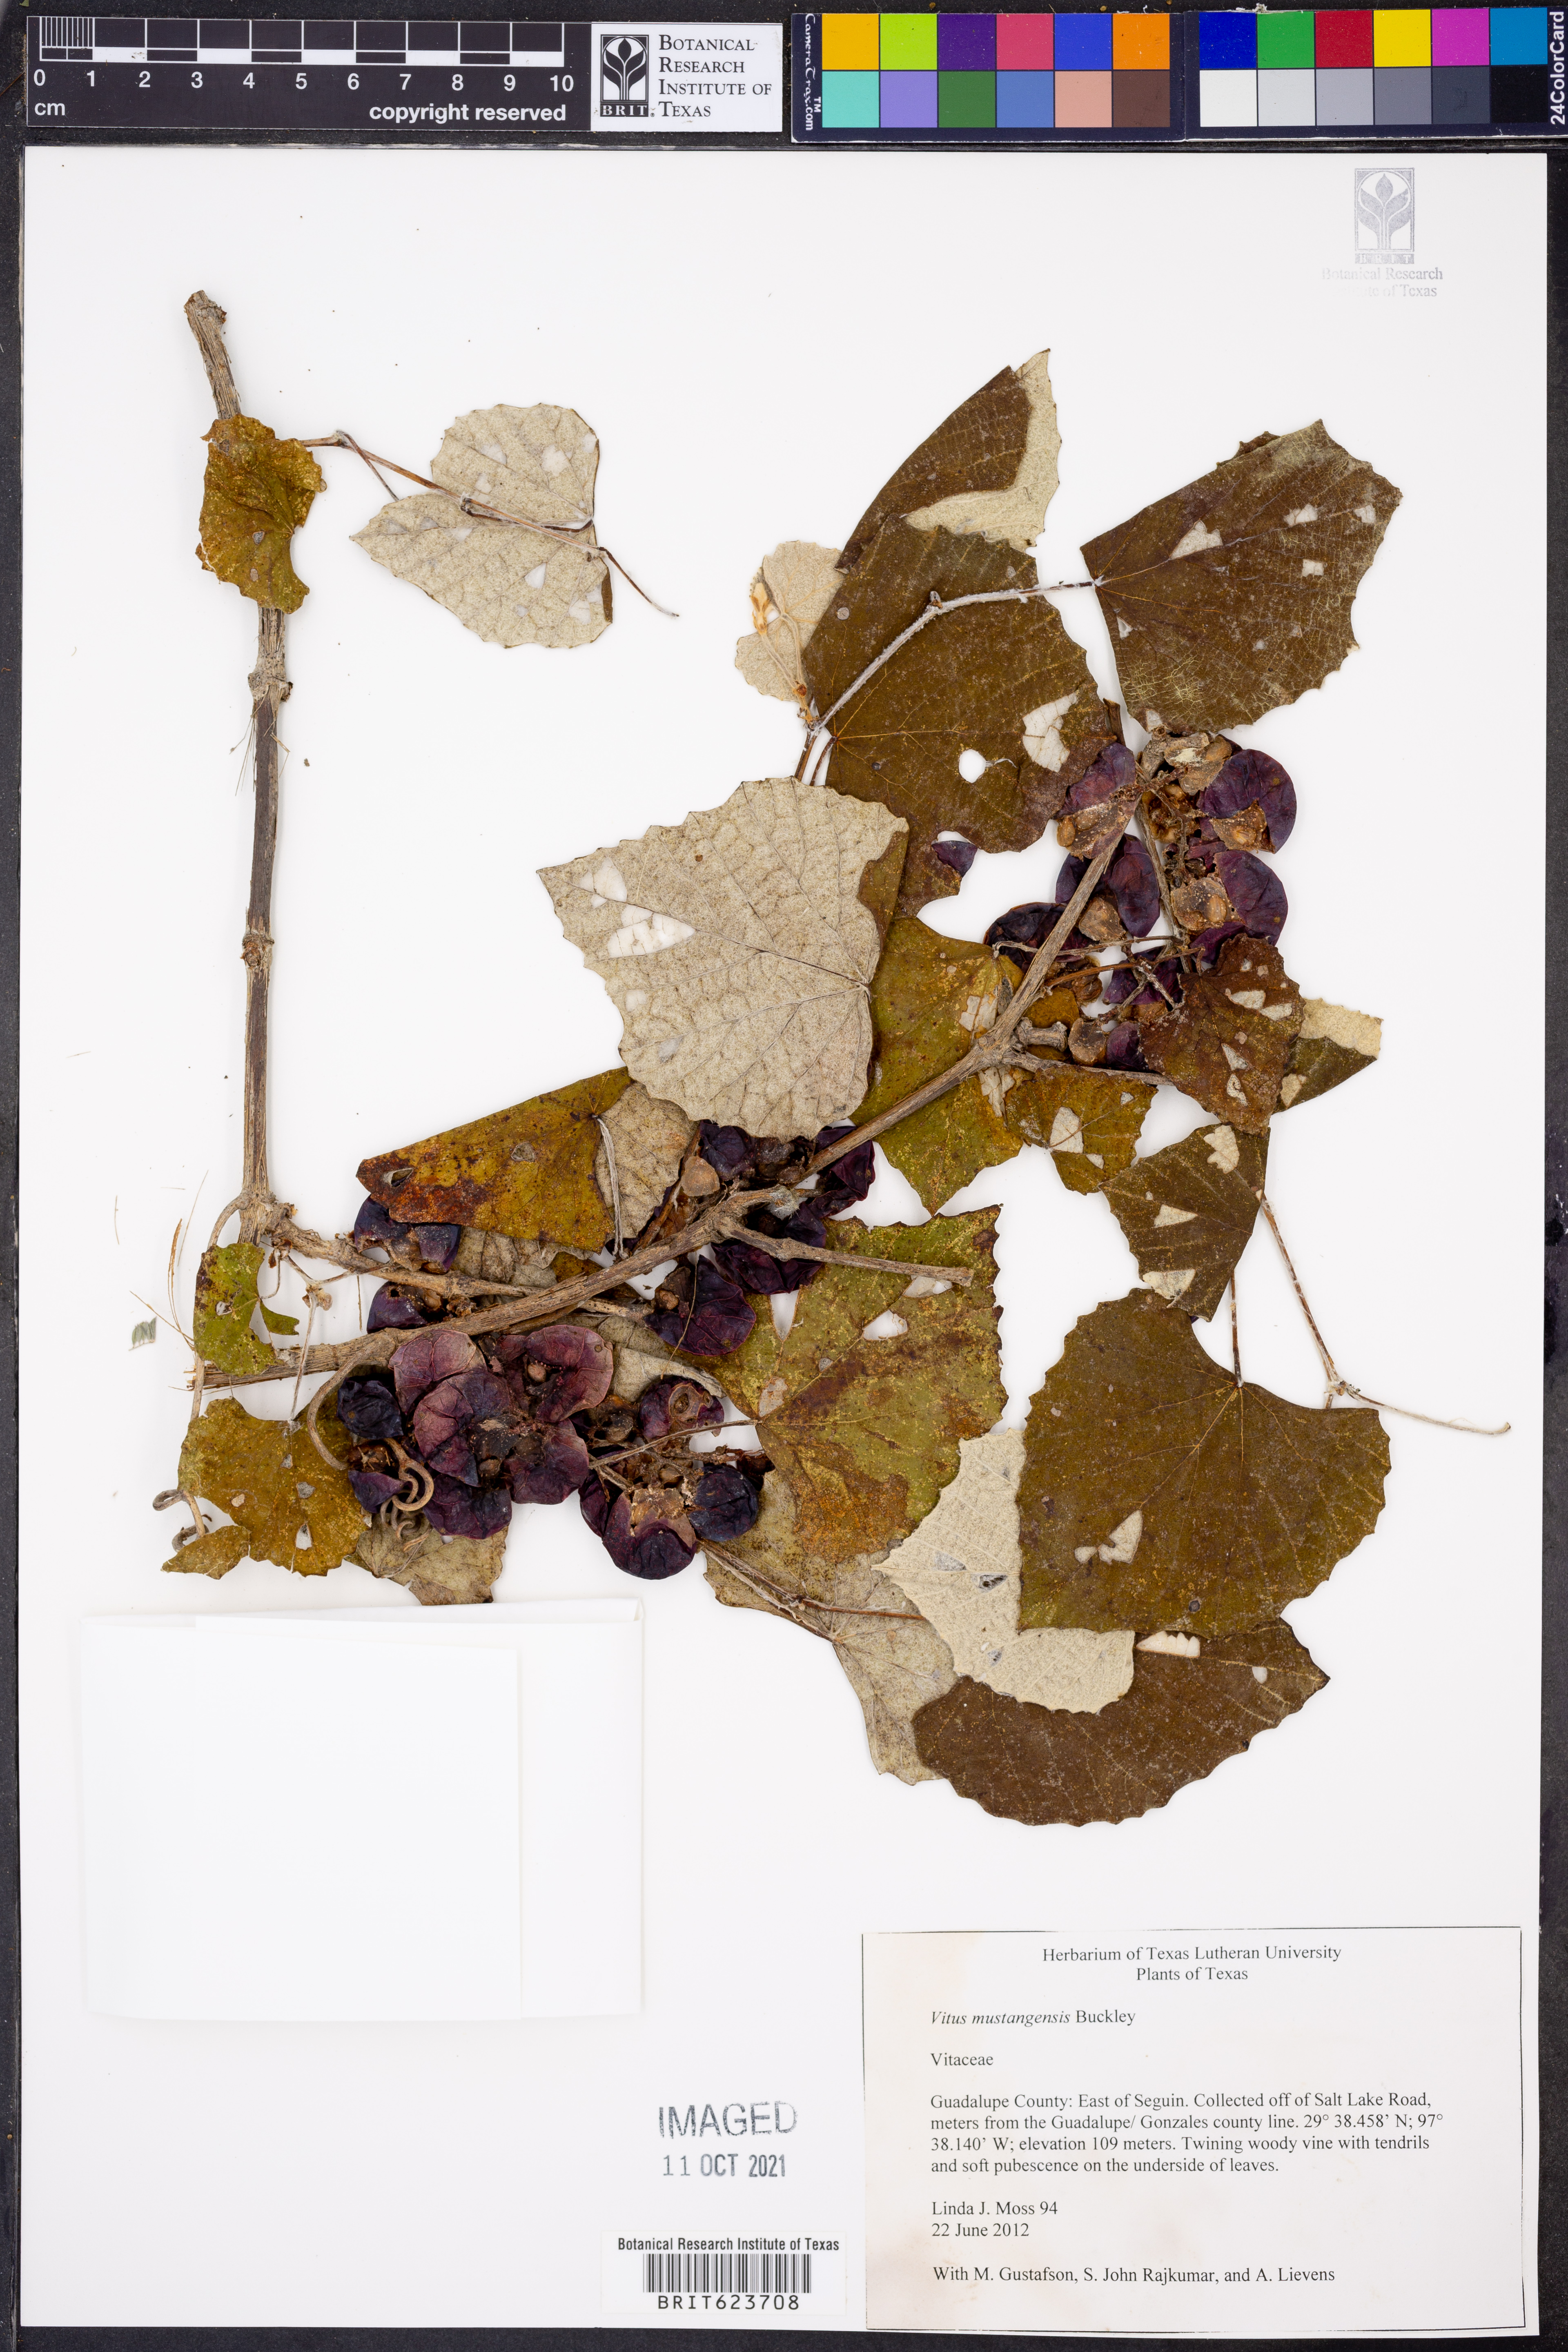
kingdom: Plantae
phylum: Tracheophyta
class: Magnoliopsida
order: Vitales
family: Vitaceae
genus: Vitis
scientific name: Vitis mustangensis
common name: Mustang grape
